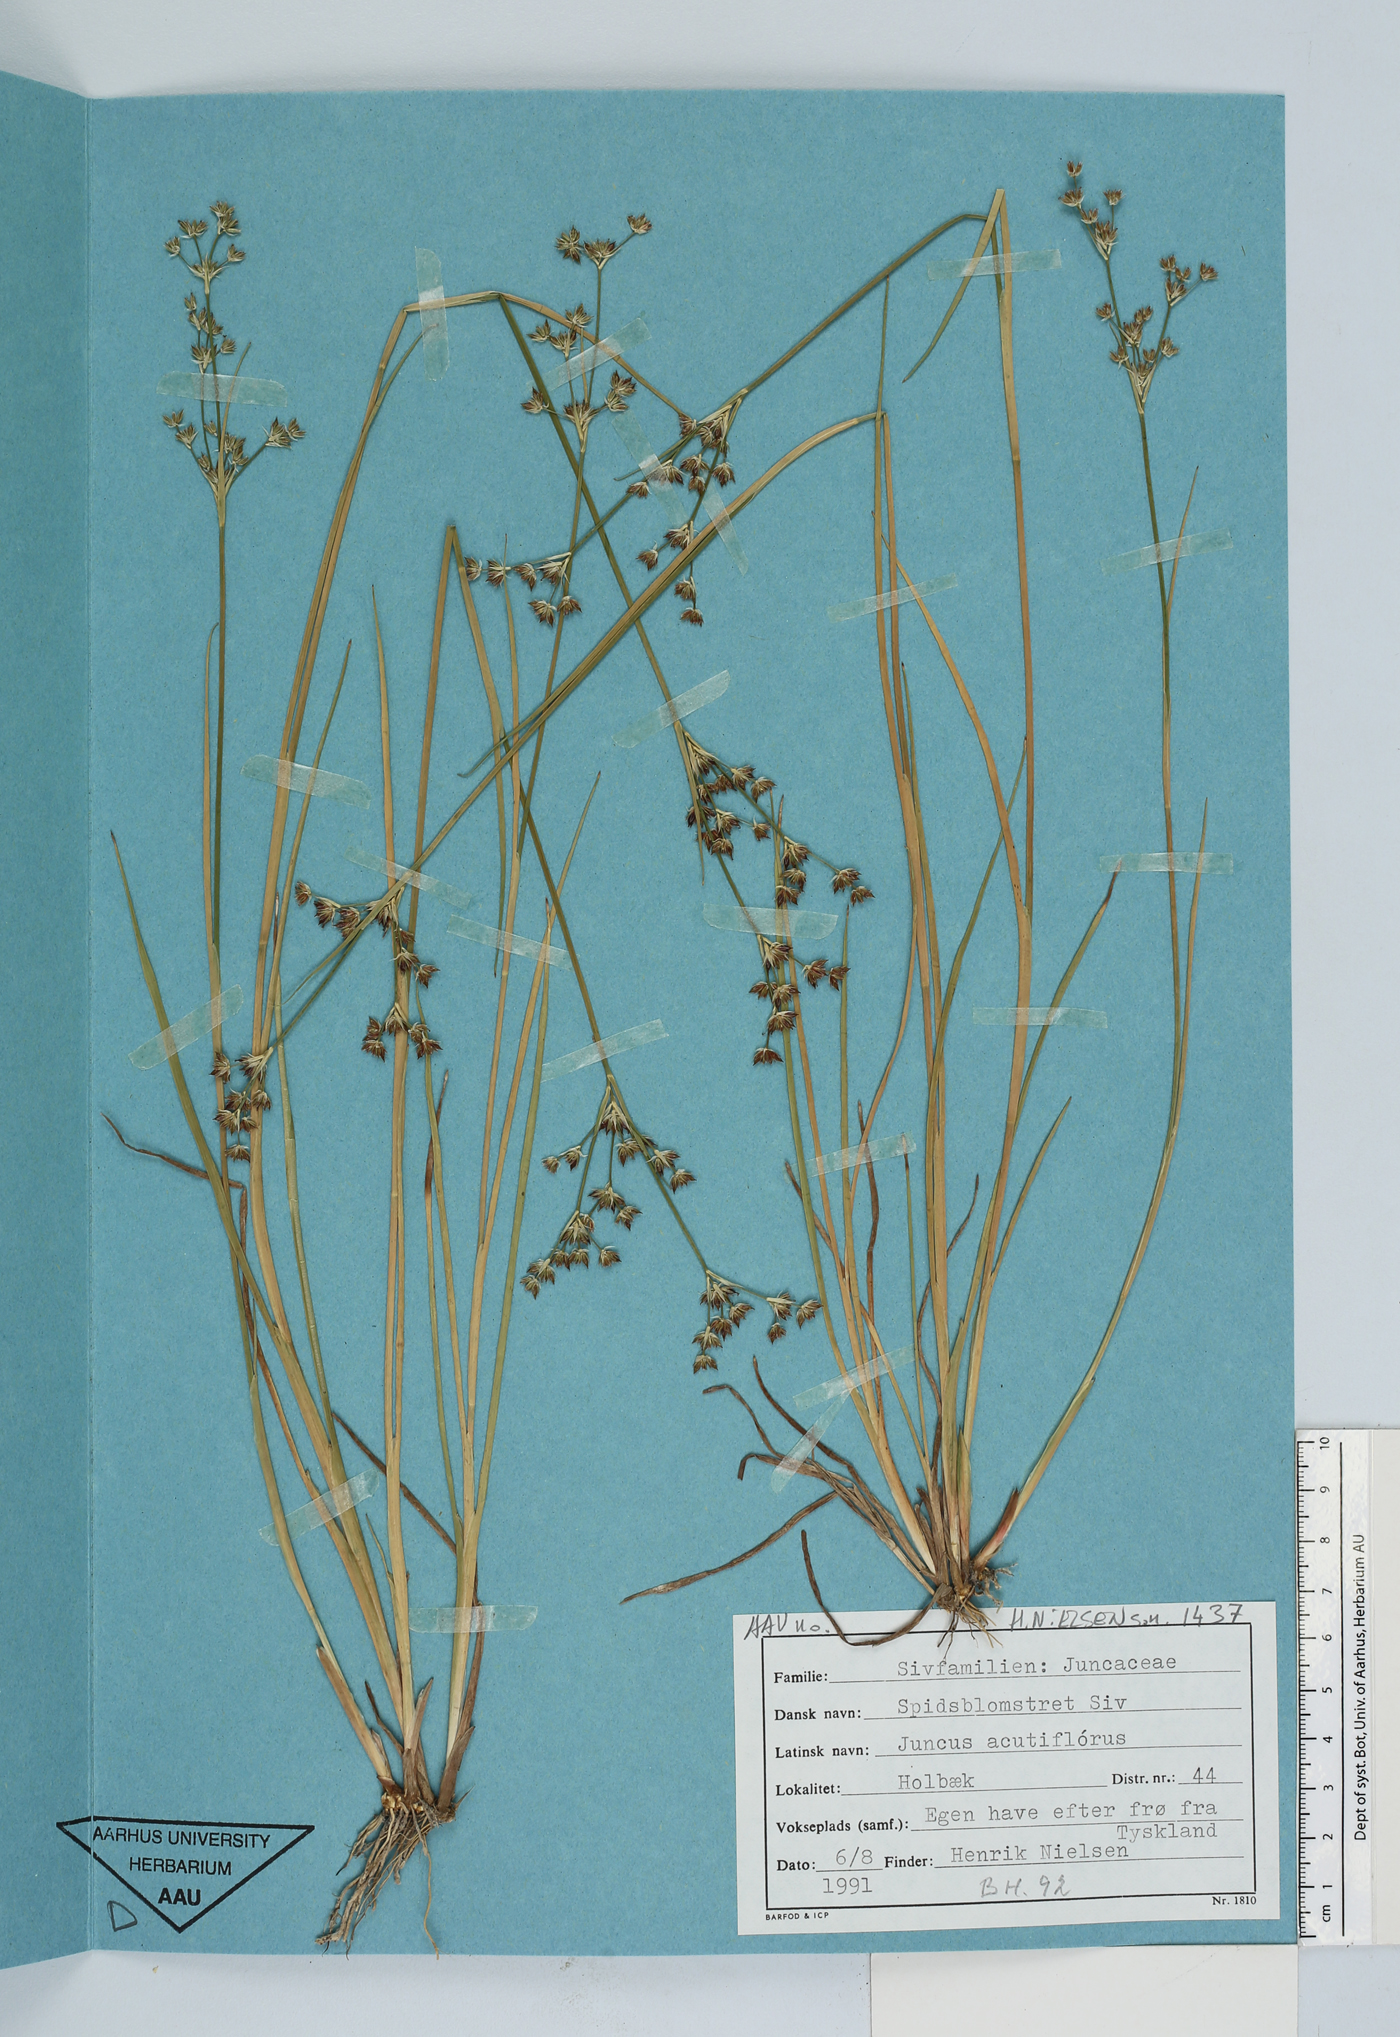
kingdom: Plantae
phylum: Tracheophyta
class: Liliopsida
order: Poales
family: Juncaceae
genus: Juncus
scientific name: Juncus acutiflorus
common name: Sharp-flowered rush
